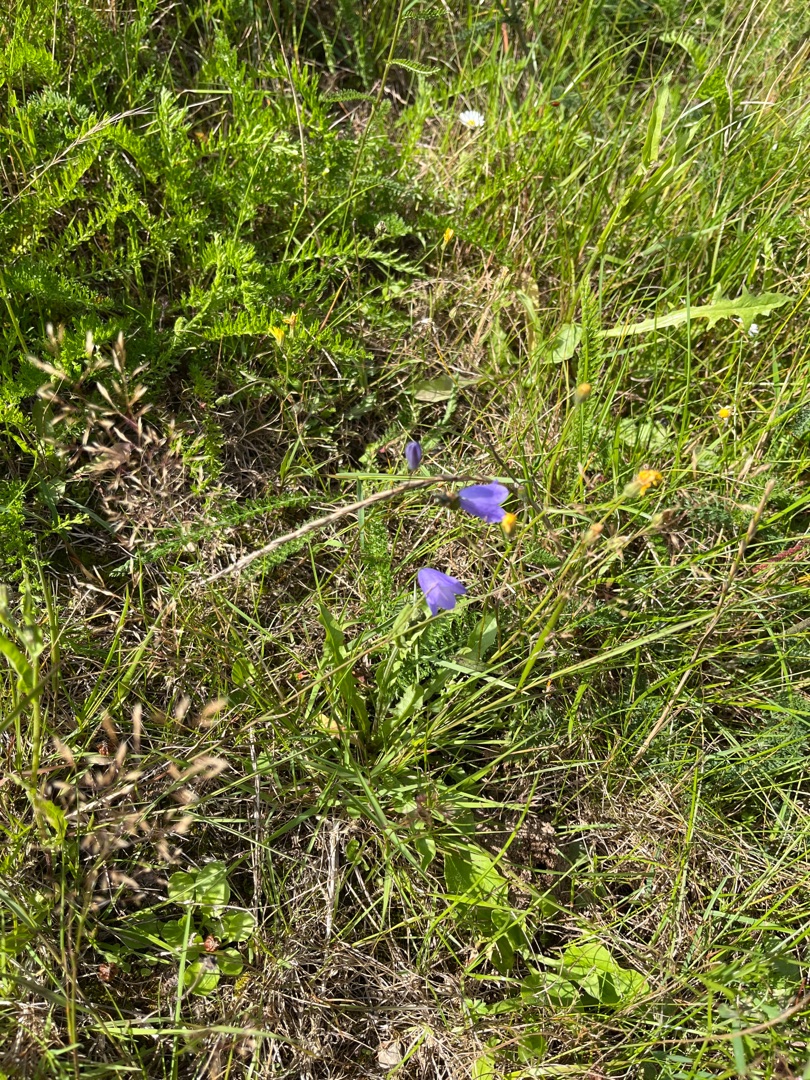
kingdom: Plantae
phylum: Tracheophyta
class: Magnoliopsida
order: Asterales
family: Campanulaceae
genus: Campanula
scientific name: Campanula rotundifolia
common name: Liden klokke
